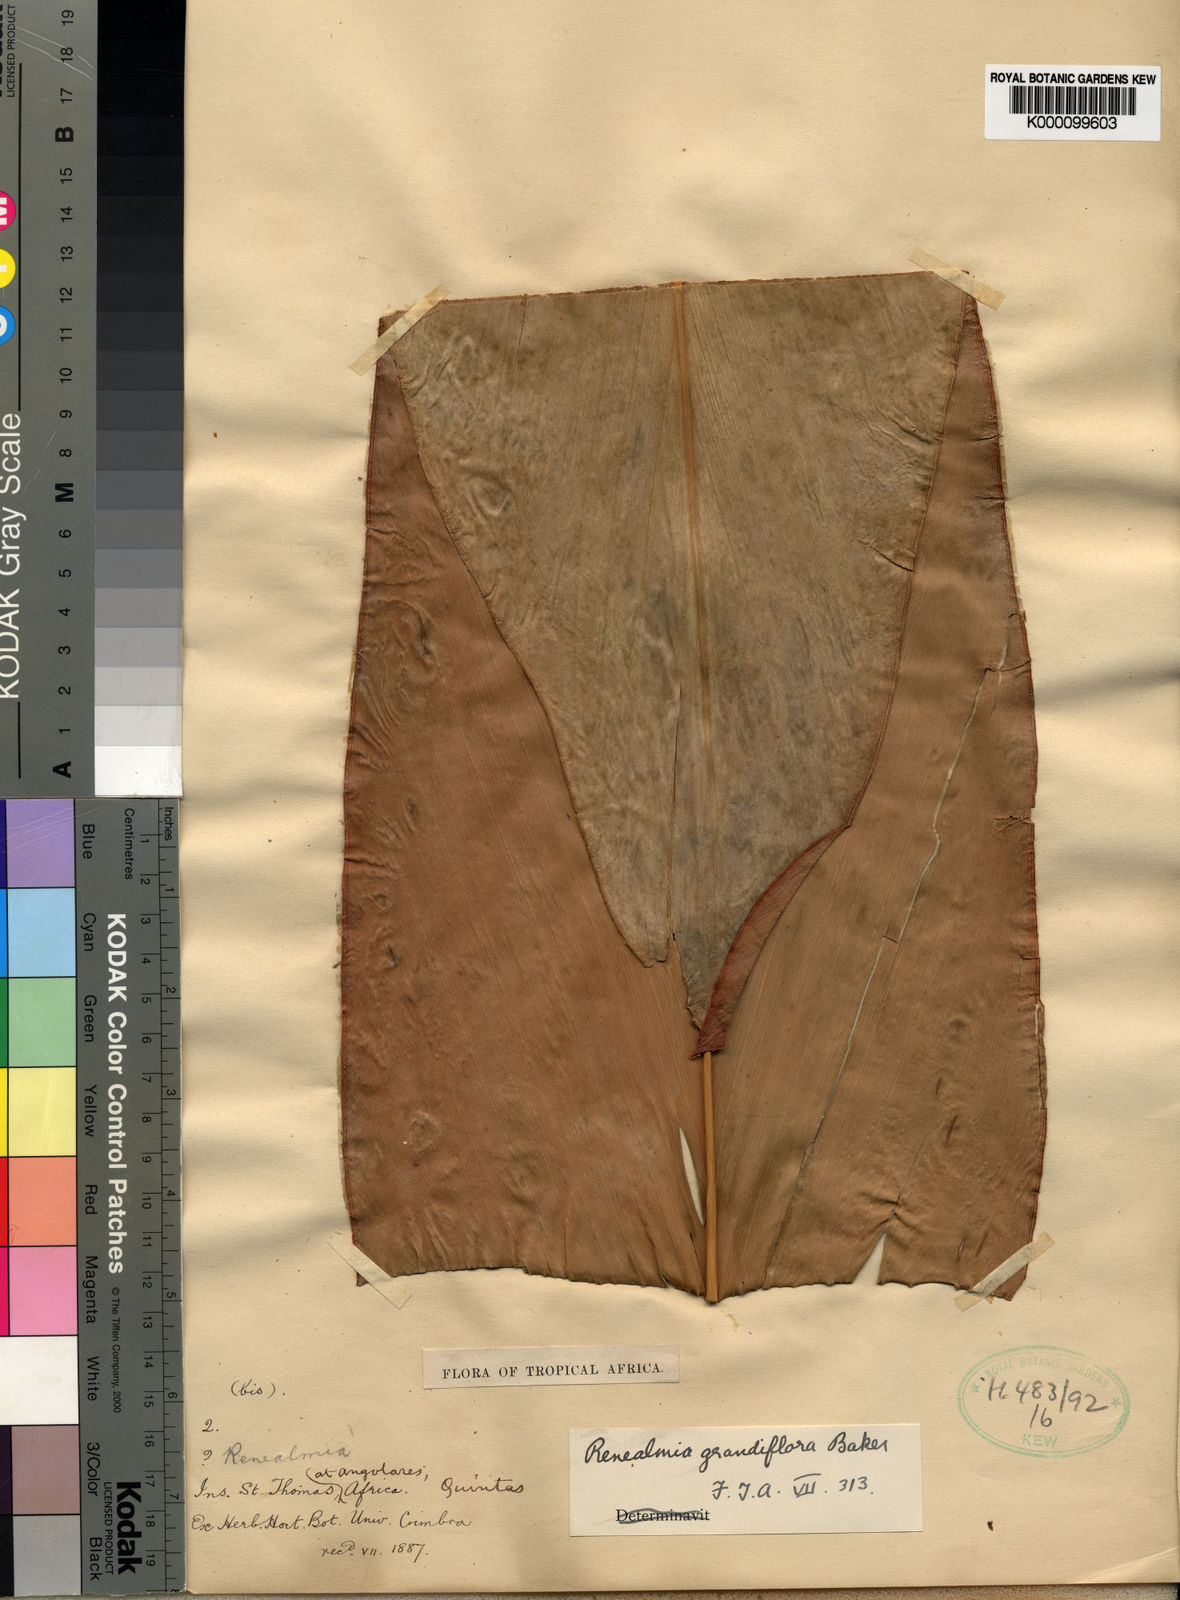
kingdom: Plantae
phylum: Tracheophyta
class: Liliopsida
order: Zingiberales
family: Zingiberaceae
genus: Renealmia
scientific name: Renealmia sancti-thomae
